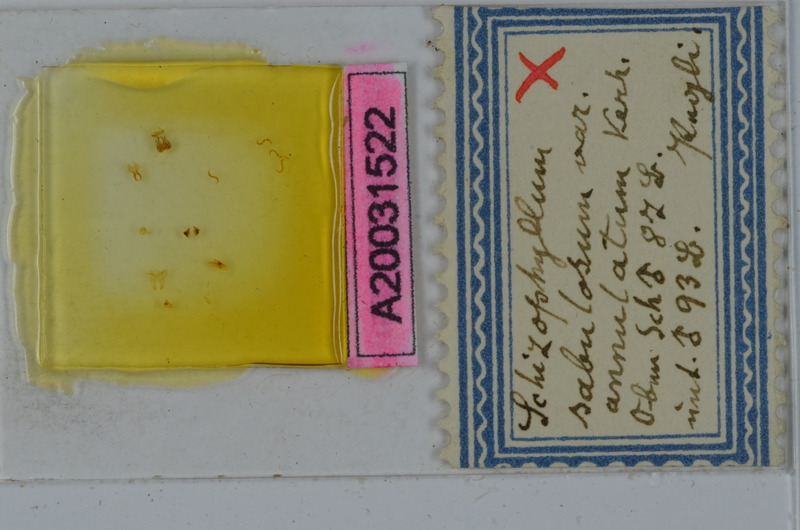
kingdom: Animalia
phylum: Arthropoda
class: Diplopoda
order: Julida
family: Julidae
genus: Schizophyllum
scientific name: Schizophyllum sabulosum
